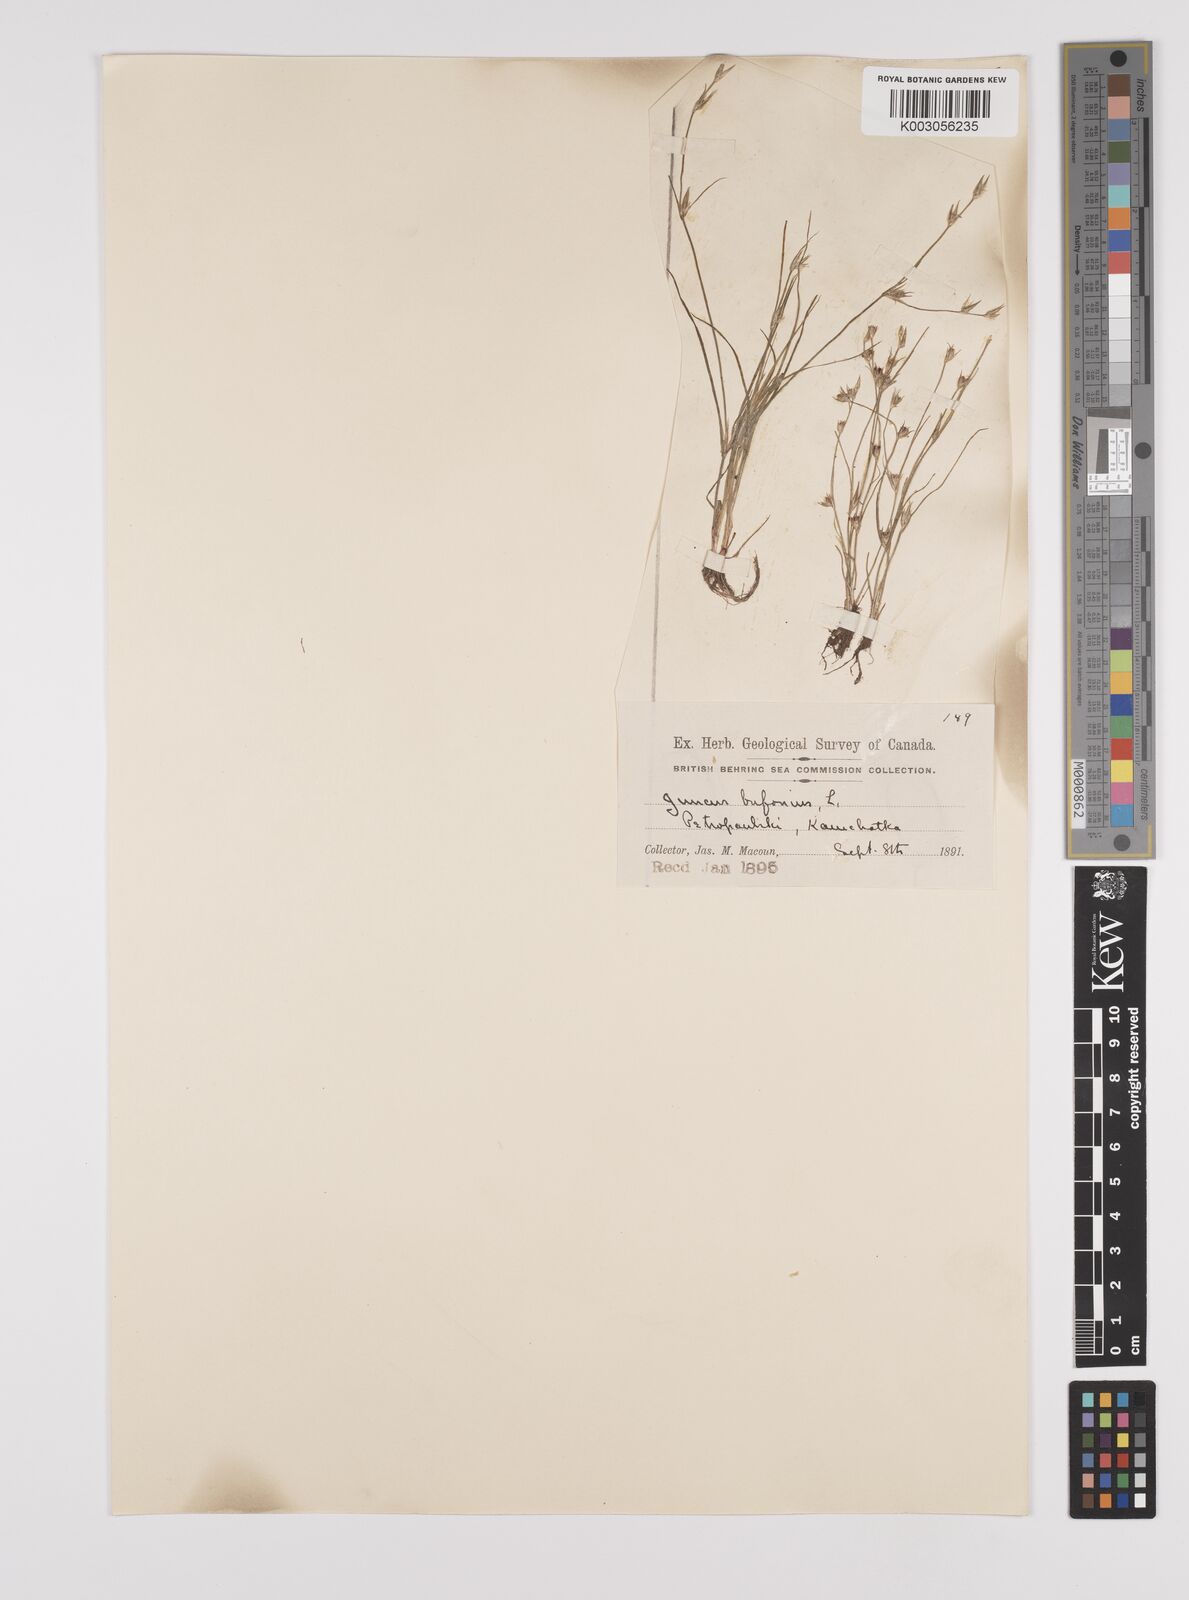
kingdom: Plantae
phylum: Tracheophyta
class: Liliopsida
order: Poales
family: Juncaceae
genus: Juncus
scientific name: Juncus bufonius
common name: Toad rush
